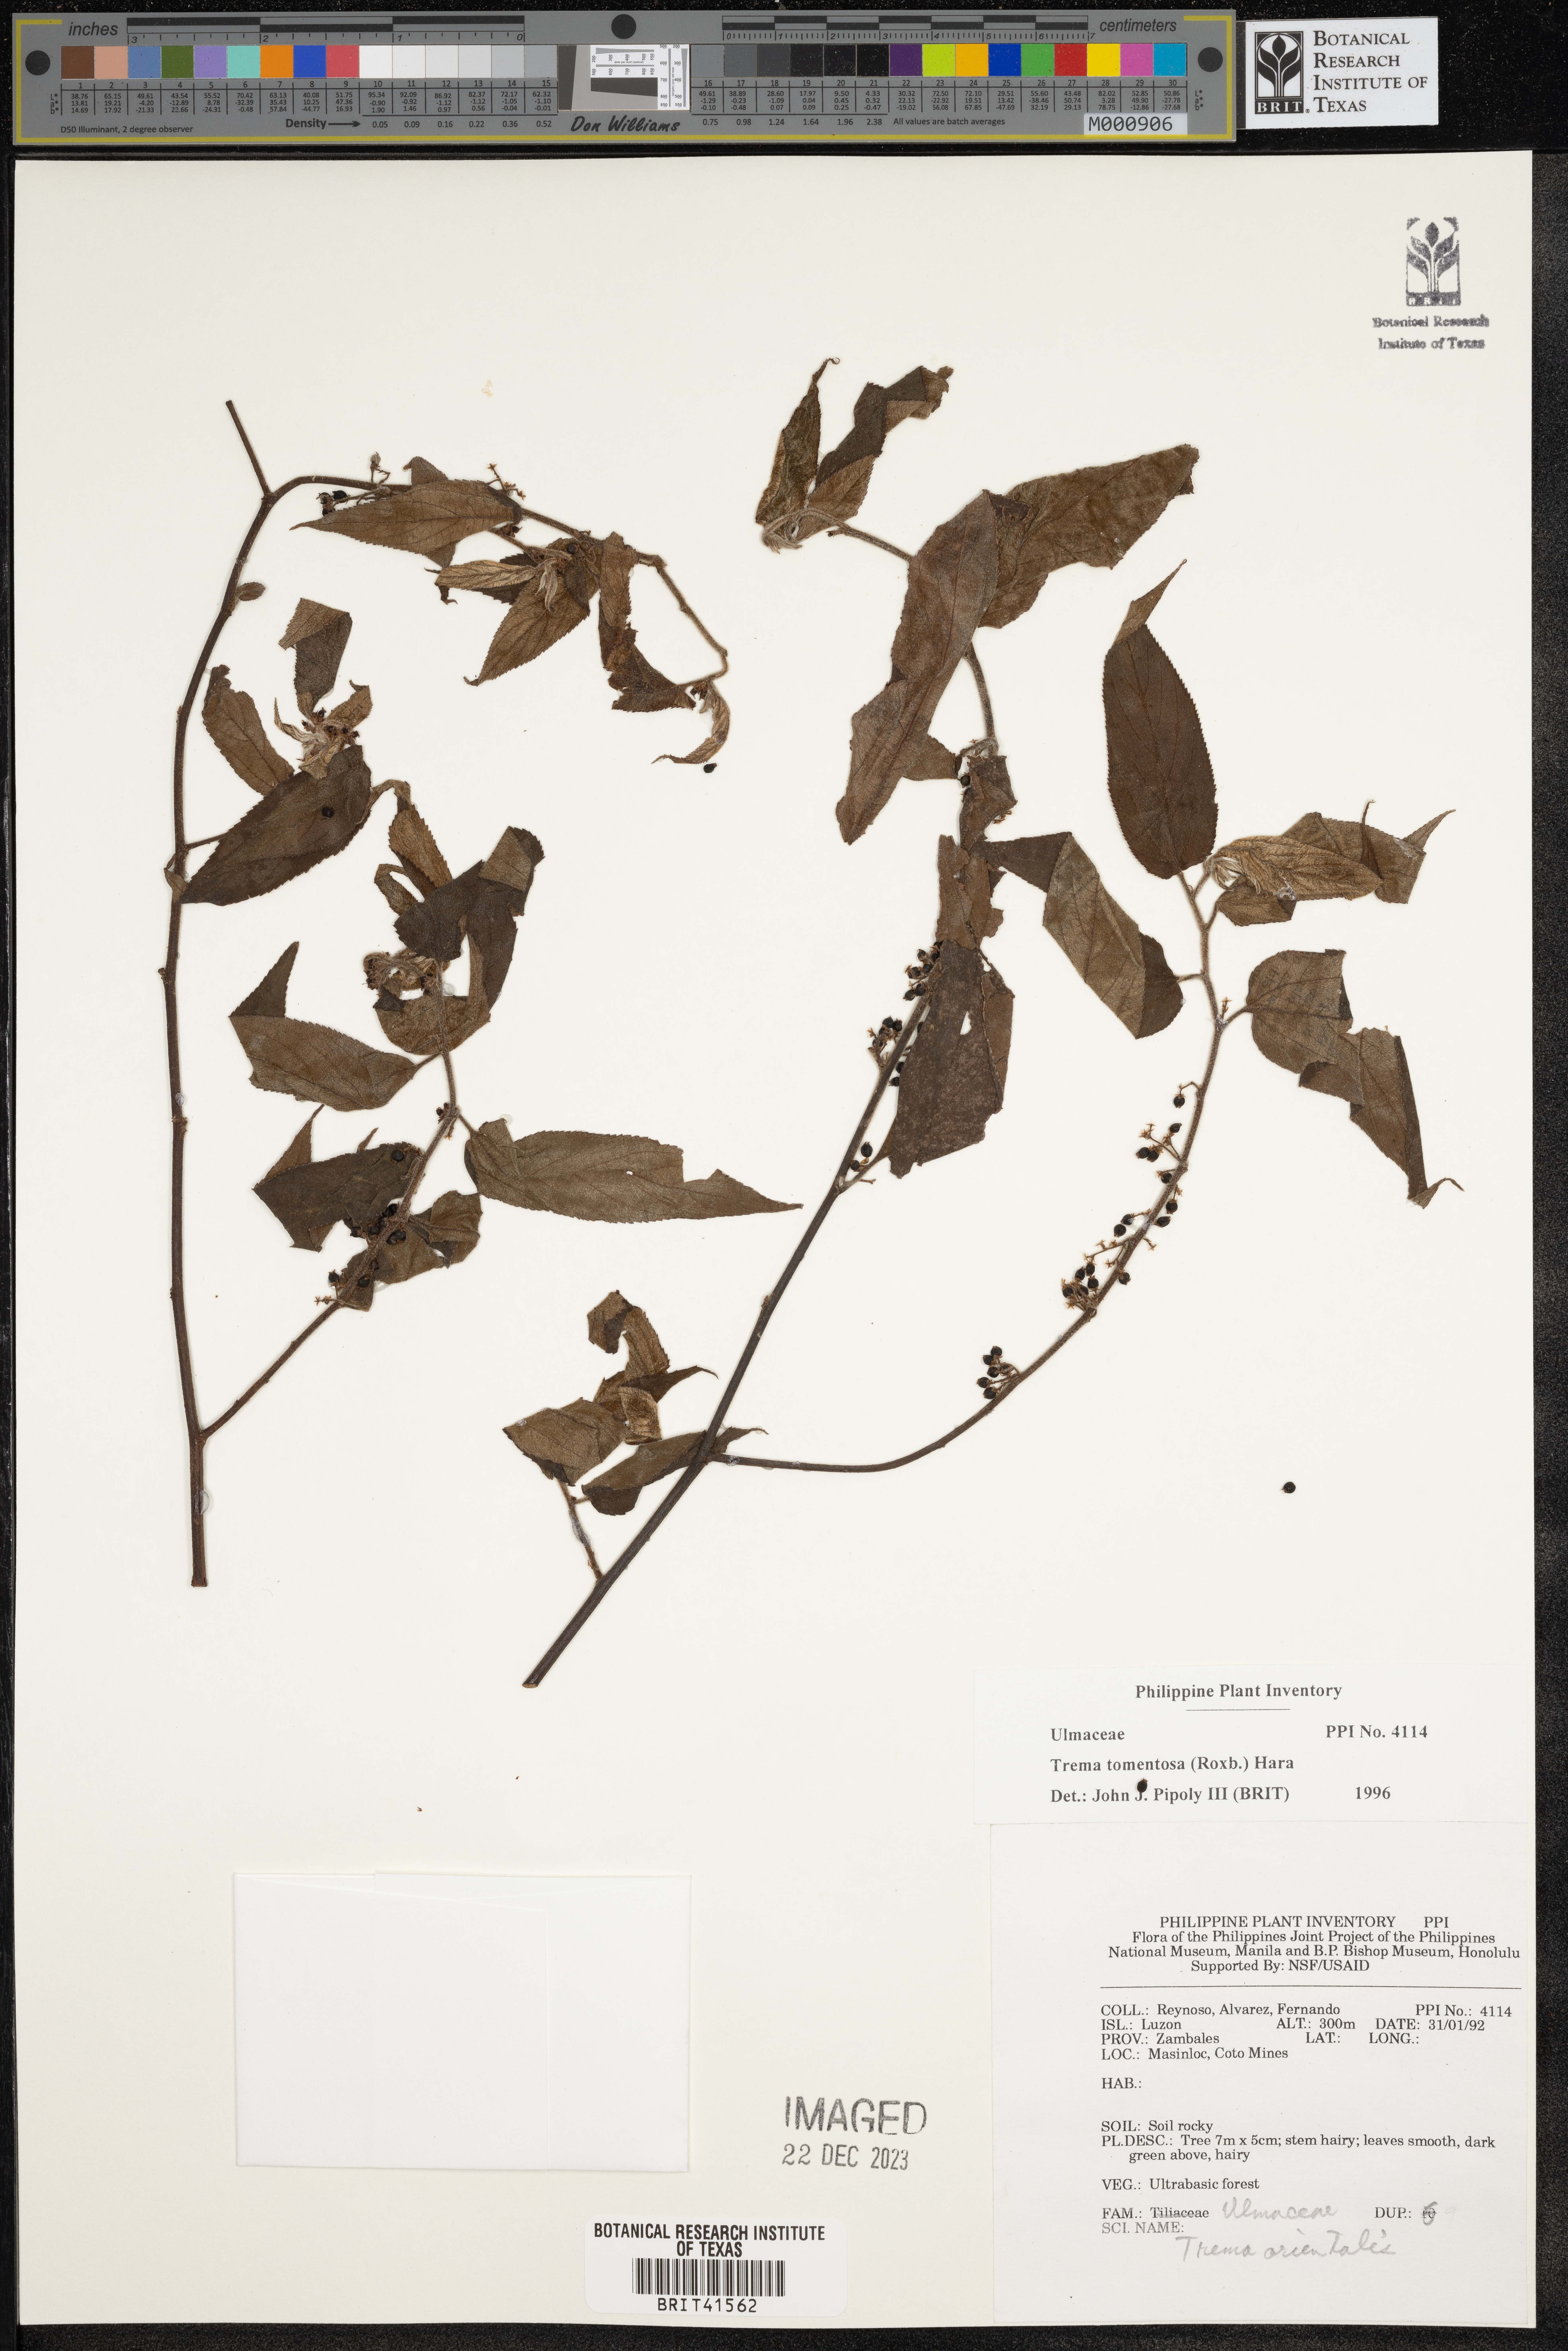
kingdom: Plantae
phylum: Tracheophyta
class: Magnoliopsida
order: Rosales
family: Cannabaceae
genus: Trema
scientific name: Trema tomentosum
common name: Peach-leaf-poisonbush
